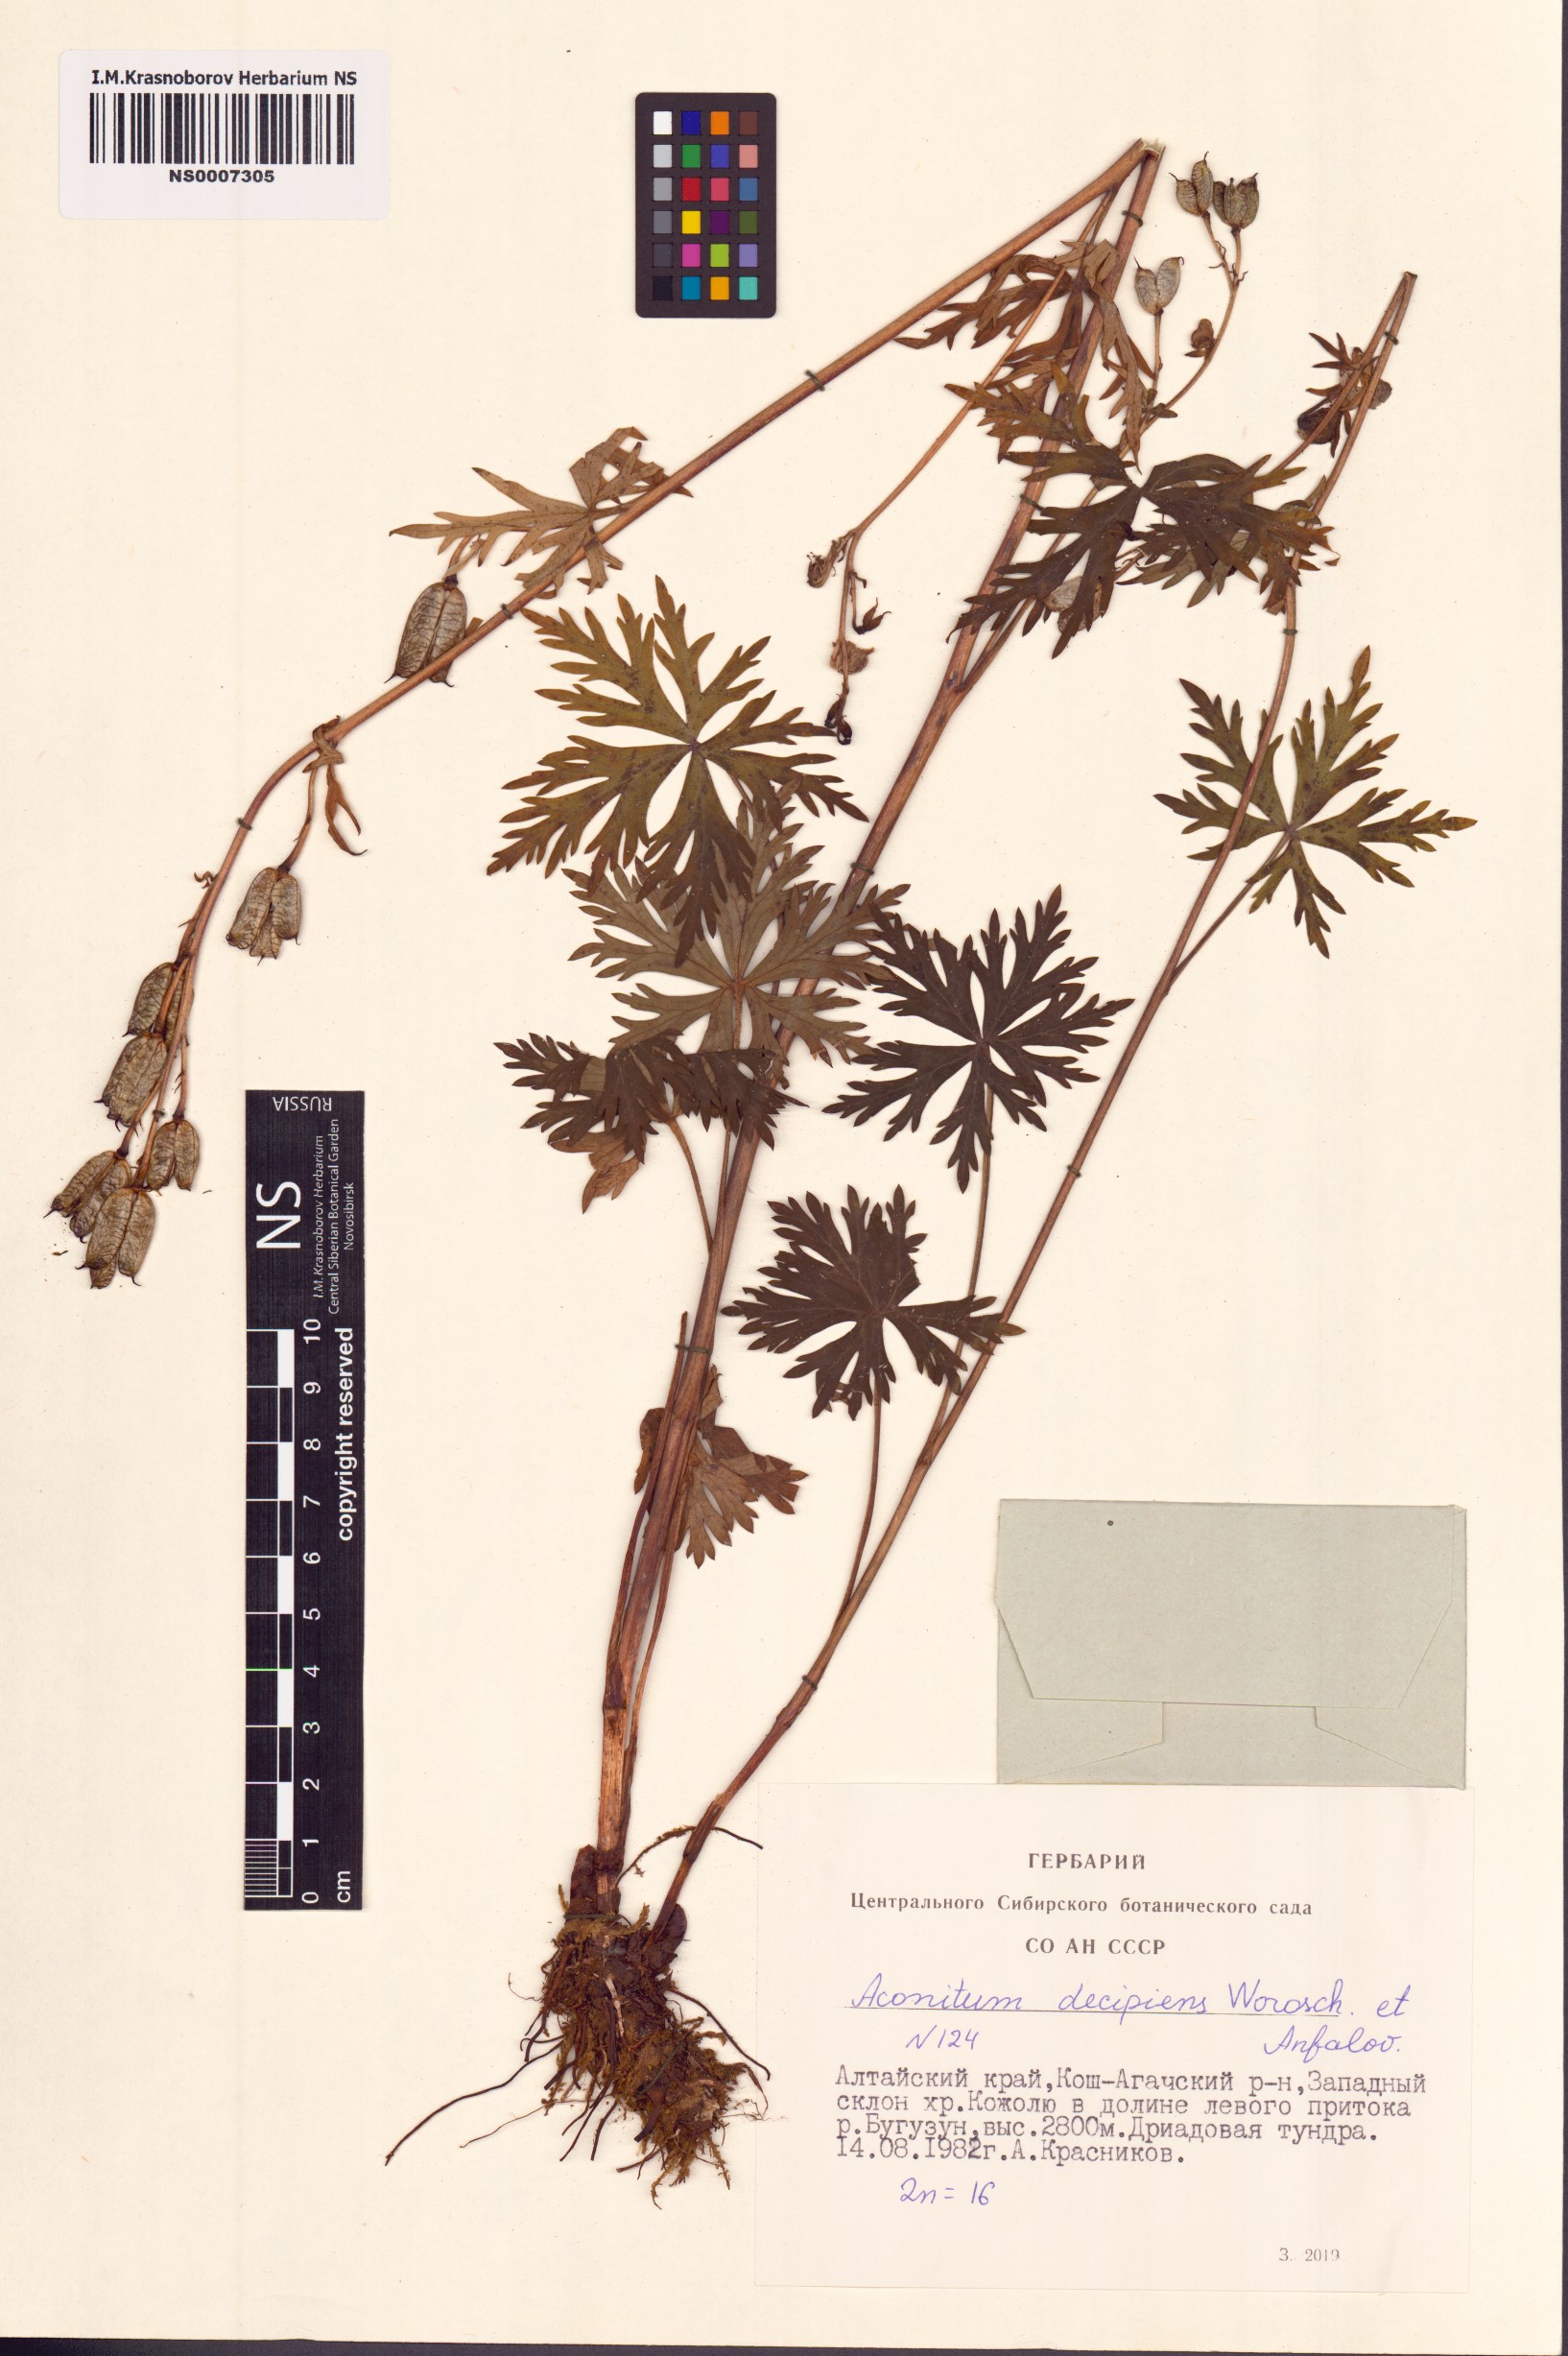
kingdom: Plantae
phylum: Tracheophyta
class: Magnoliopsida
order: Ranunculales
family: Ranunculaceae
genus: Aconitum
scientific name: Aconitum decipiens
